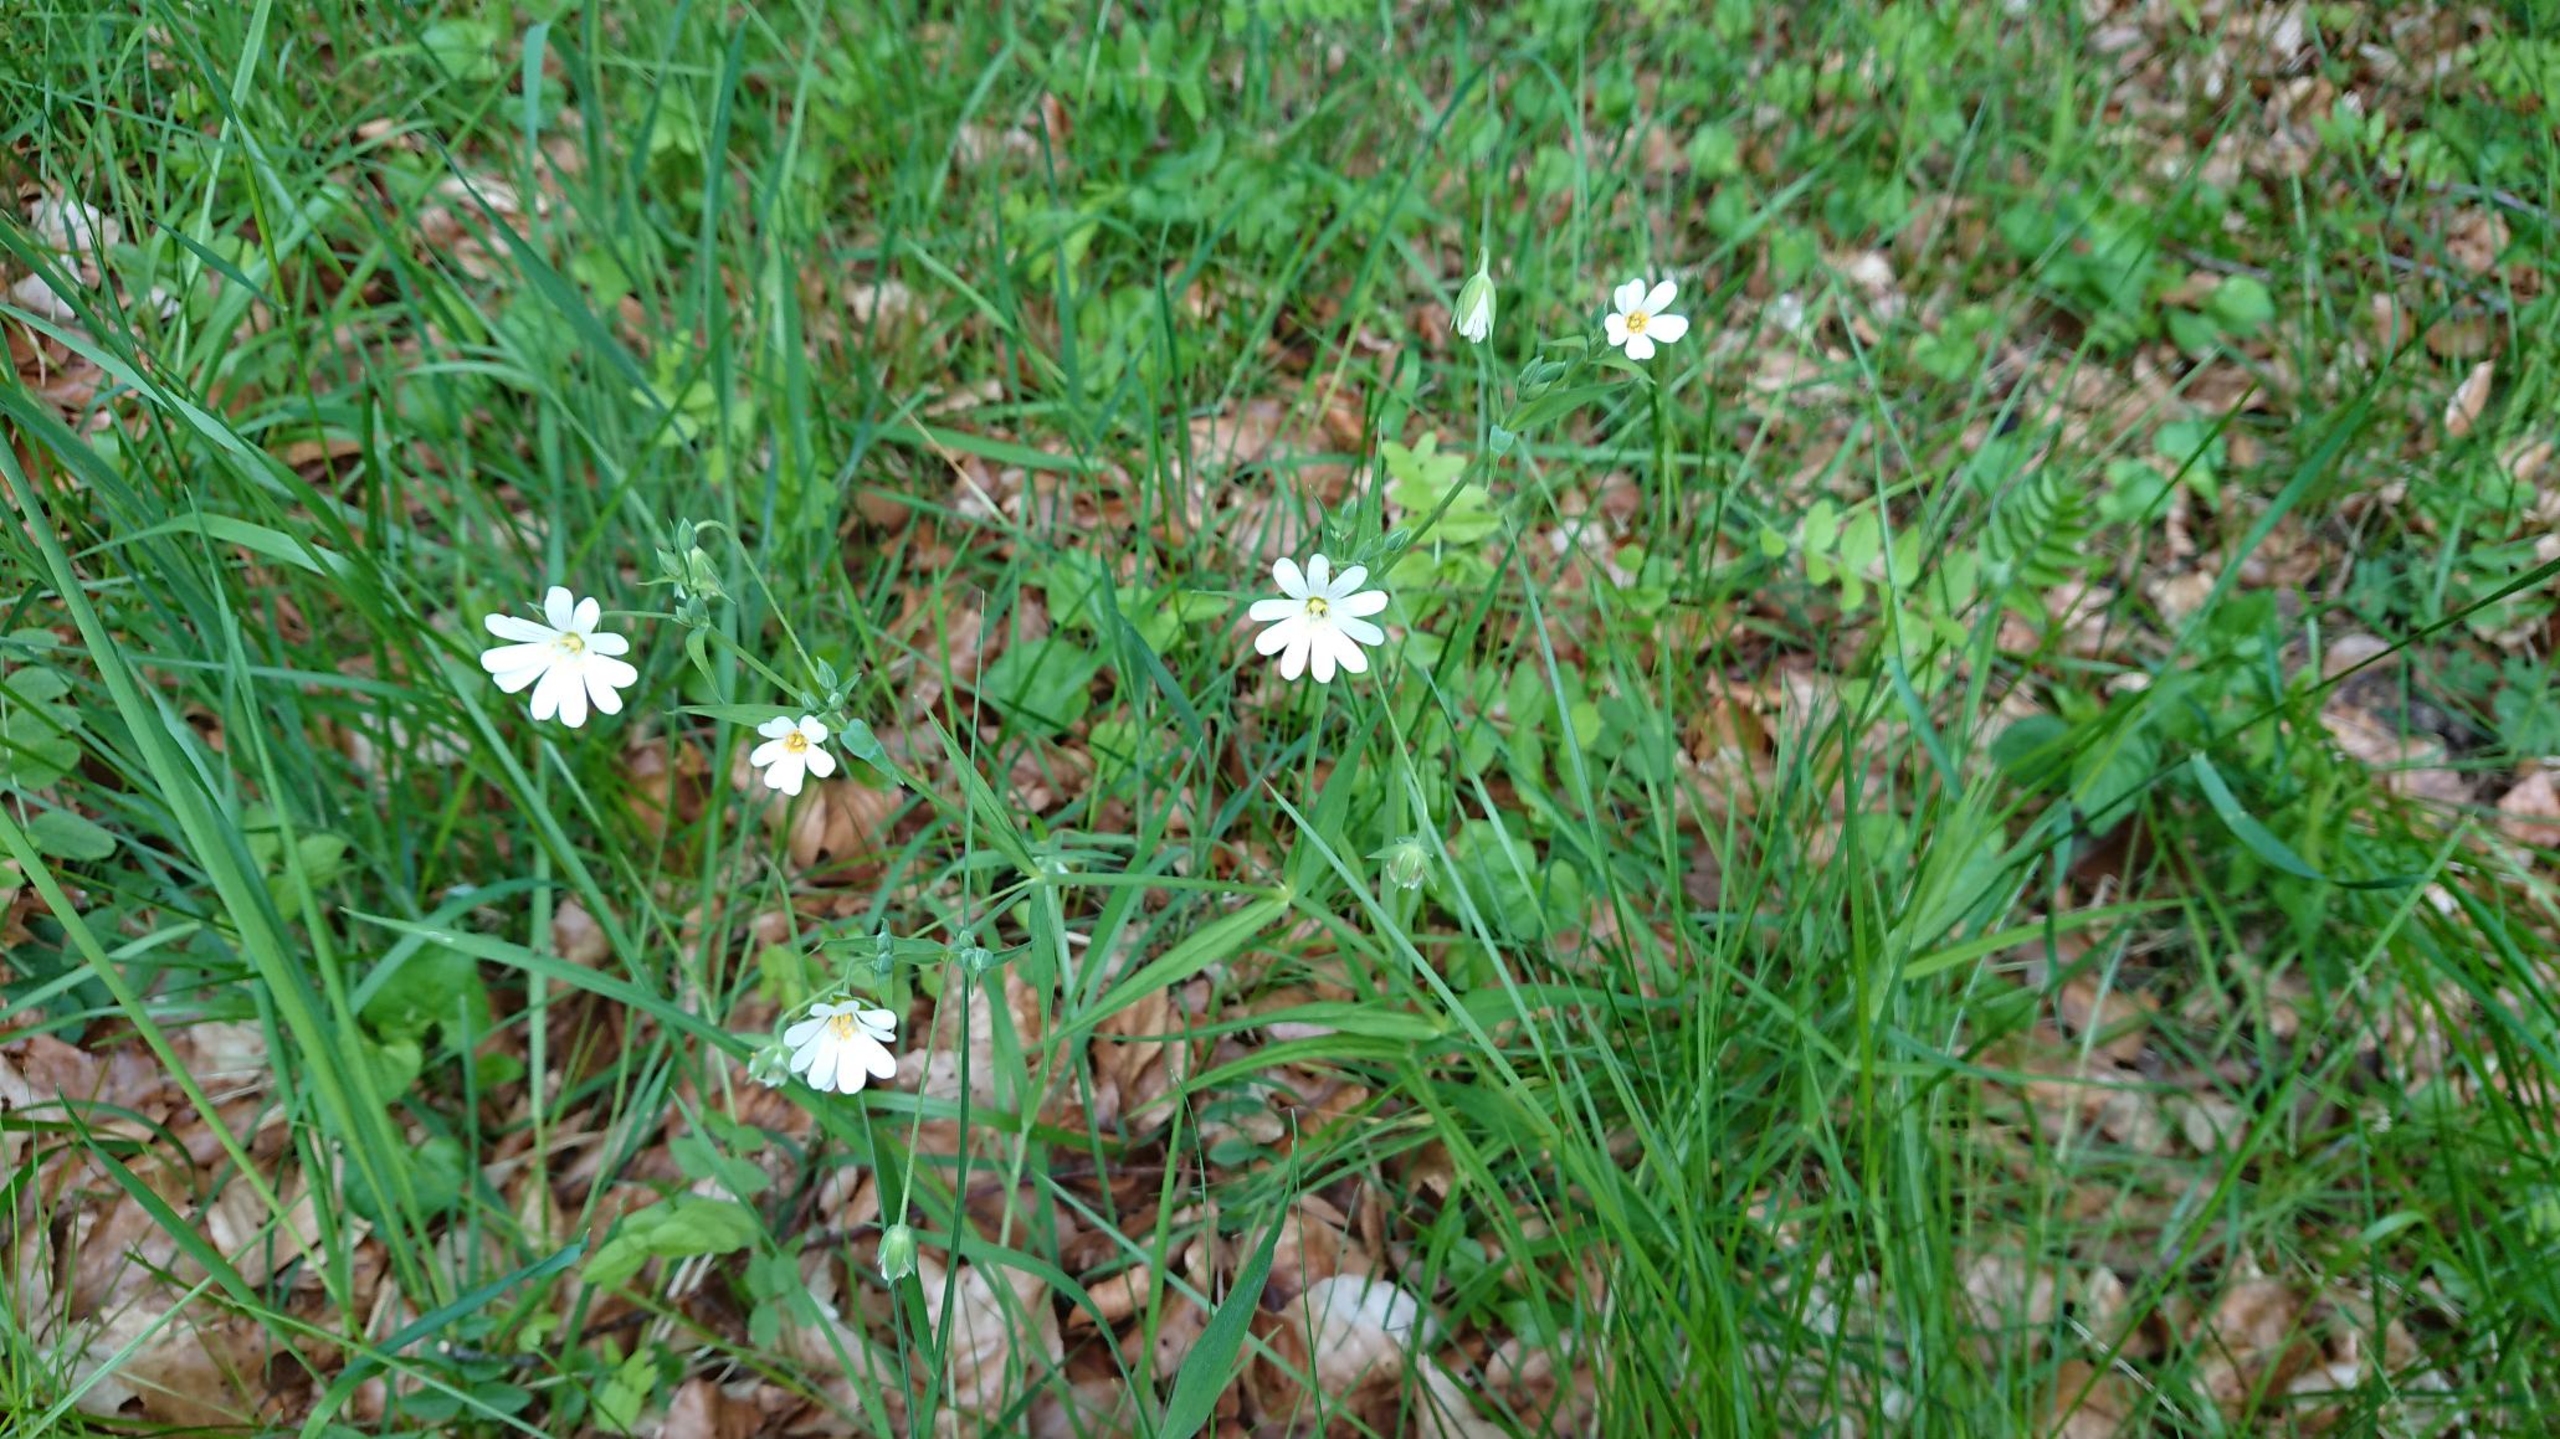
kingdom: Plantae
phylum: Tracheophyta
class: Magnoliopsida
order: Caryophyllales
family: Caryophyllaceae
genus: Rabelera
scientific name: Rabelera holostea
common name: Stor fladstjerne
